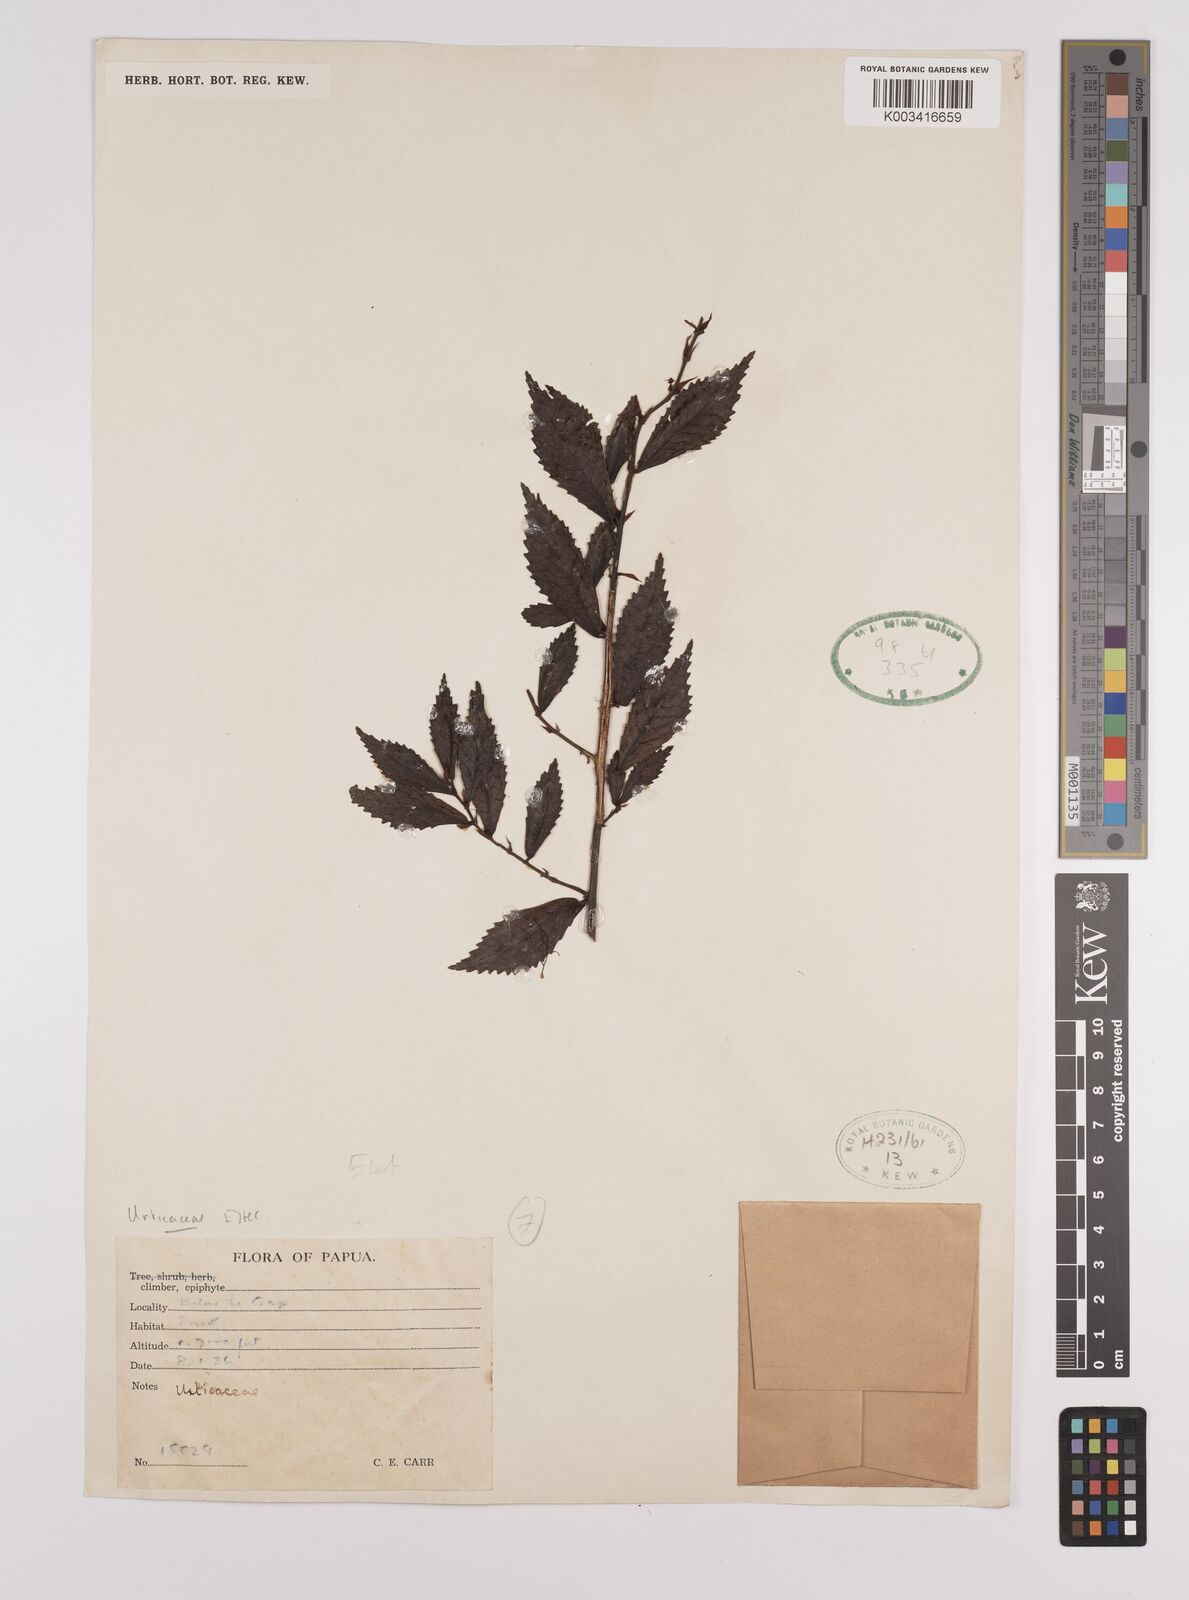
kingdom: Plantae
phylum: Tracheophyta
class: Magnoliopsida
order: Rosales
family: Urticaceae
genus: Elatostema
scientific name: Elatostema
